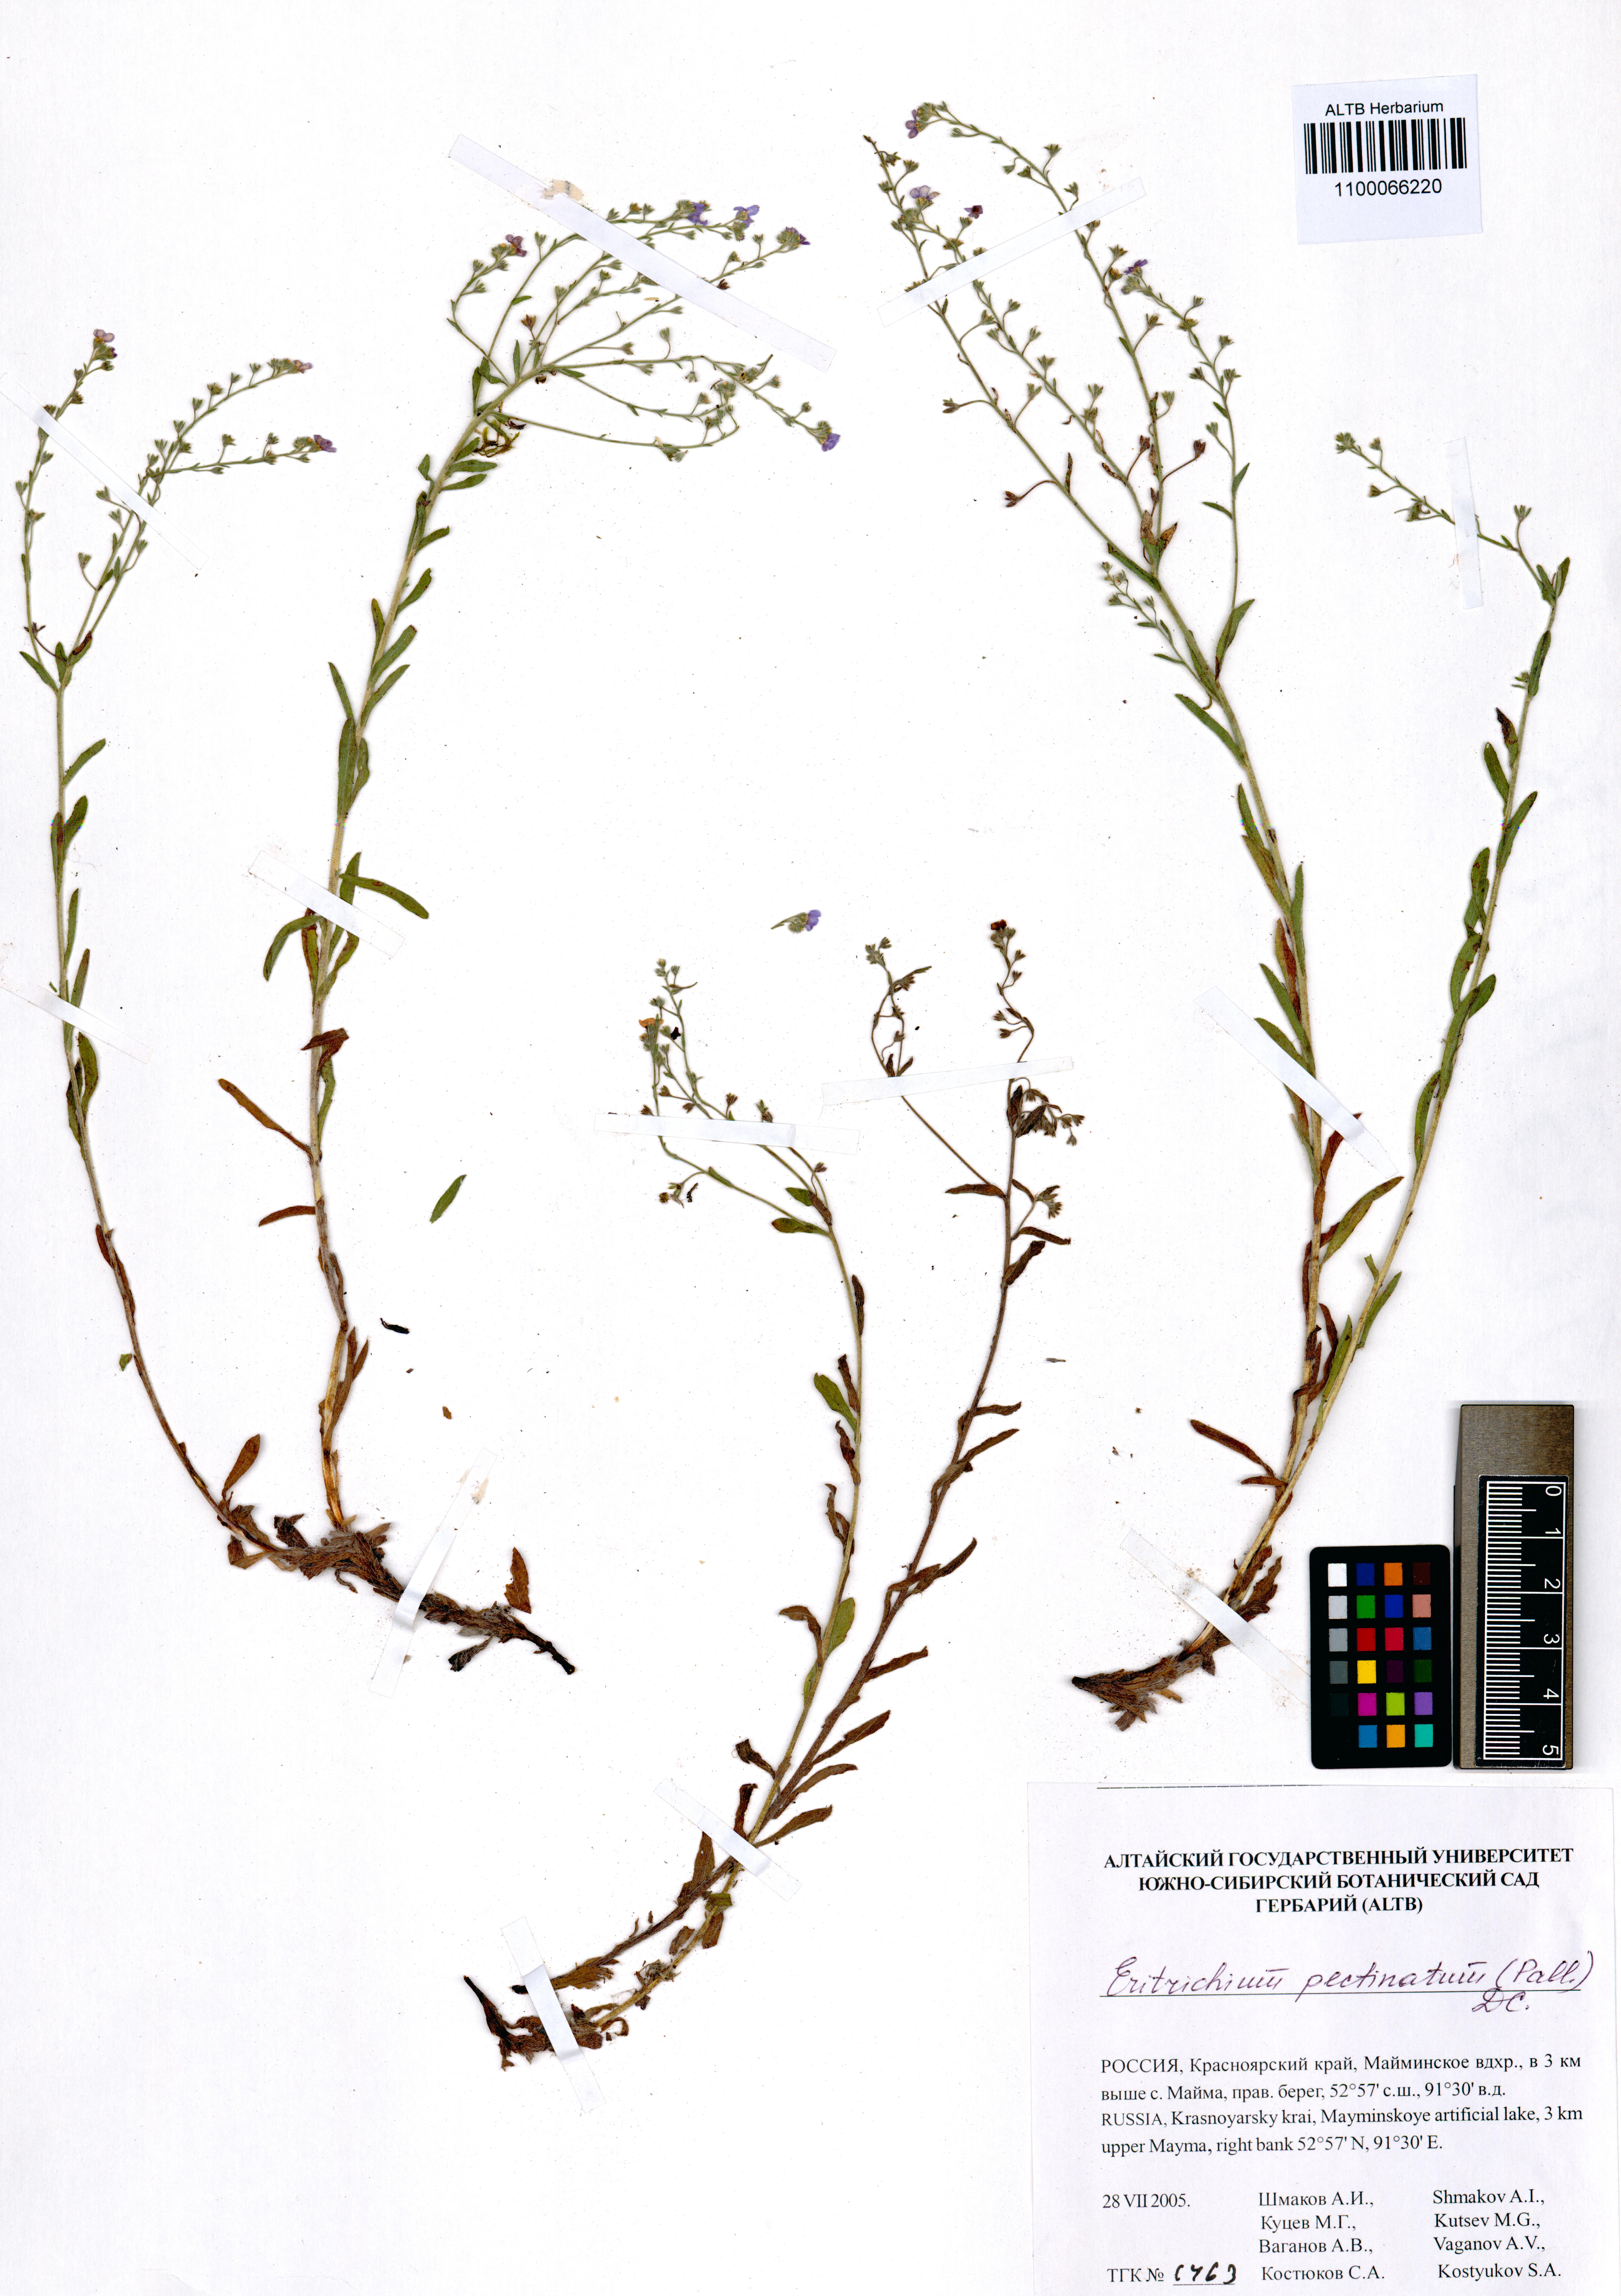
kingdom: Plantae
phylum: Tracheophyta
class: Magnoliopsida
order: Boraginales
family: Boraginaceae
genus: Eritrichium
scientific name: Eritrichium pectinatum
